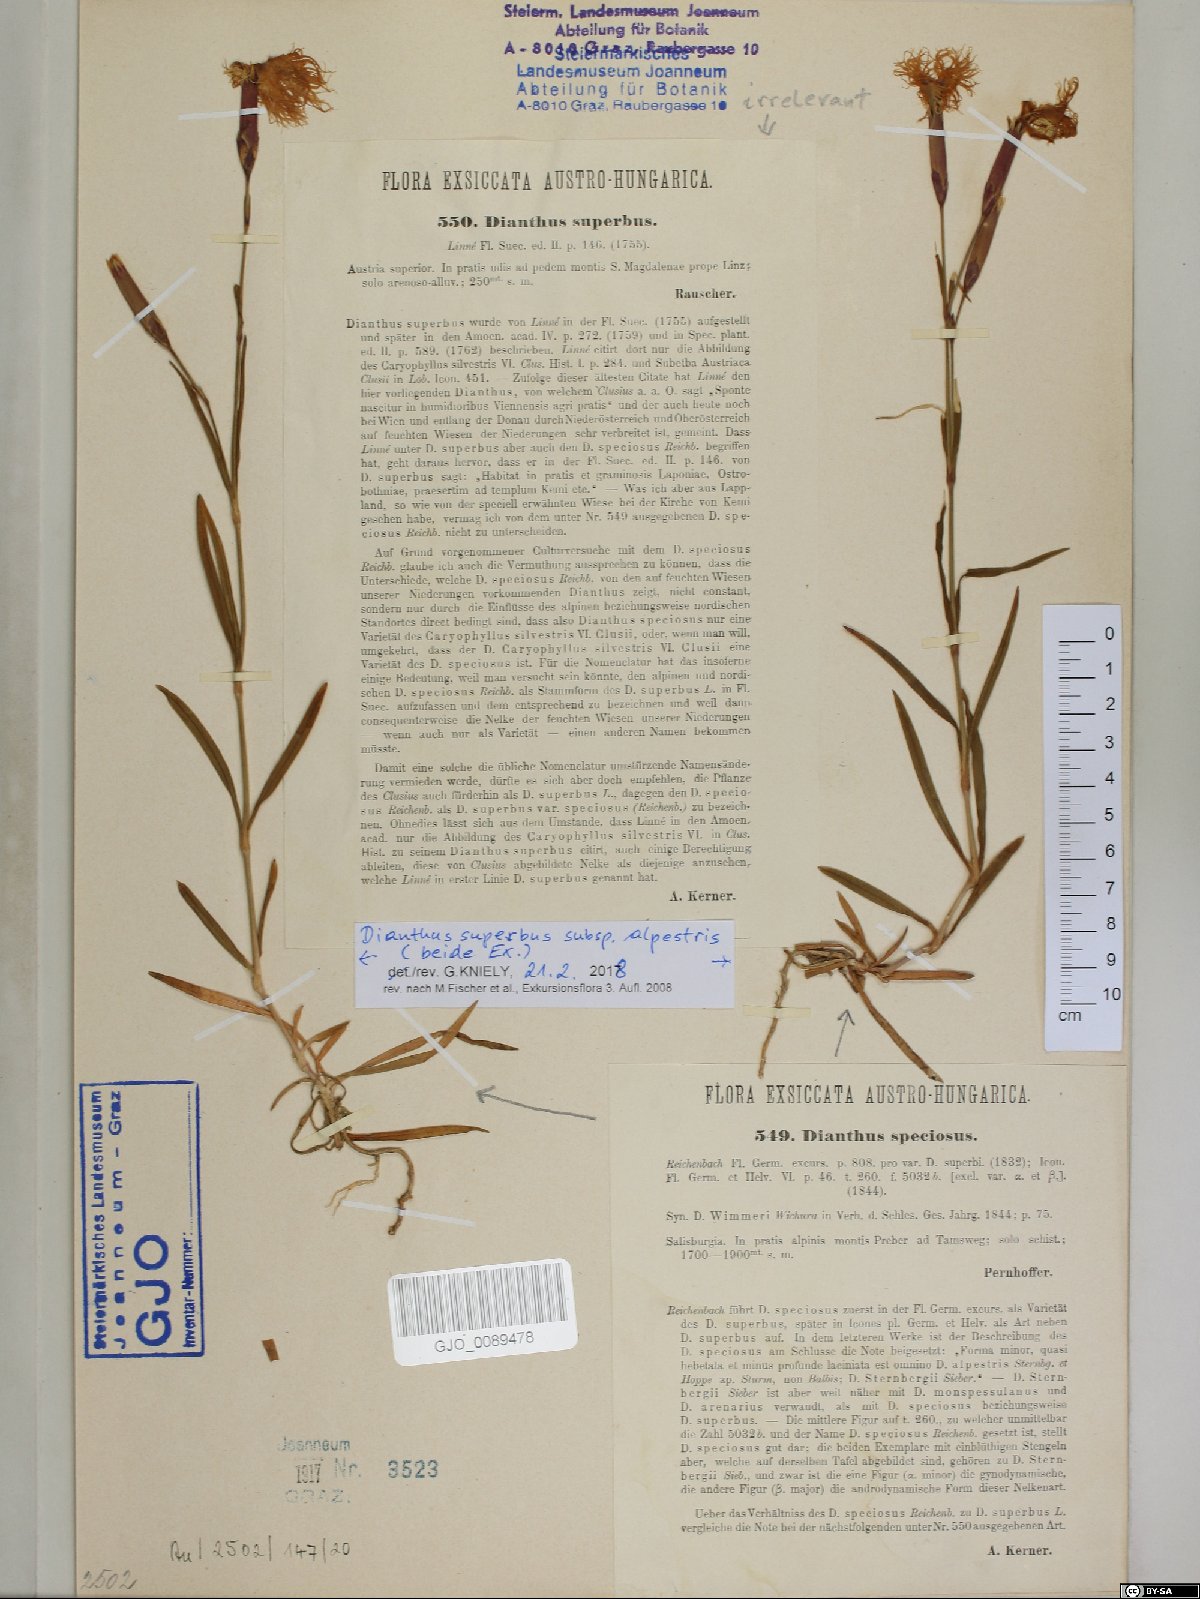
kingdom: Plantae
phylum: Tracheophyta
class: Magnoliopsida
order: Caryophyllales
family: Caryophyllaceae
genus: Dianthus
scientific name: Dianthus superbus
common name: Fringed pink
